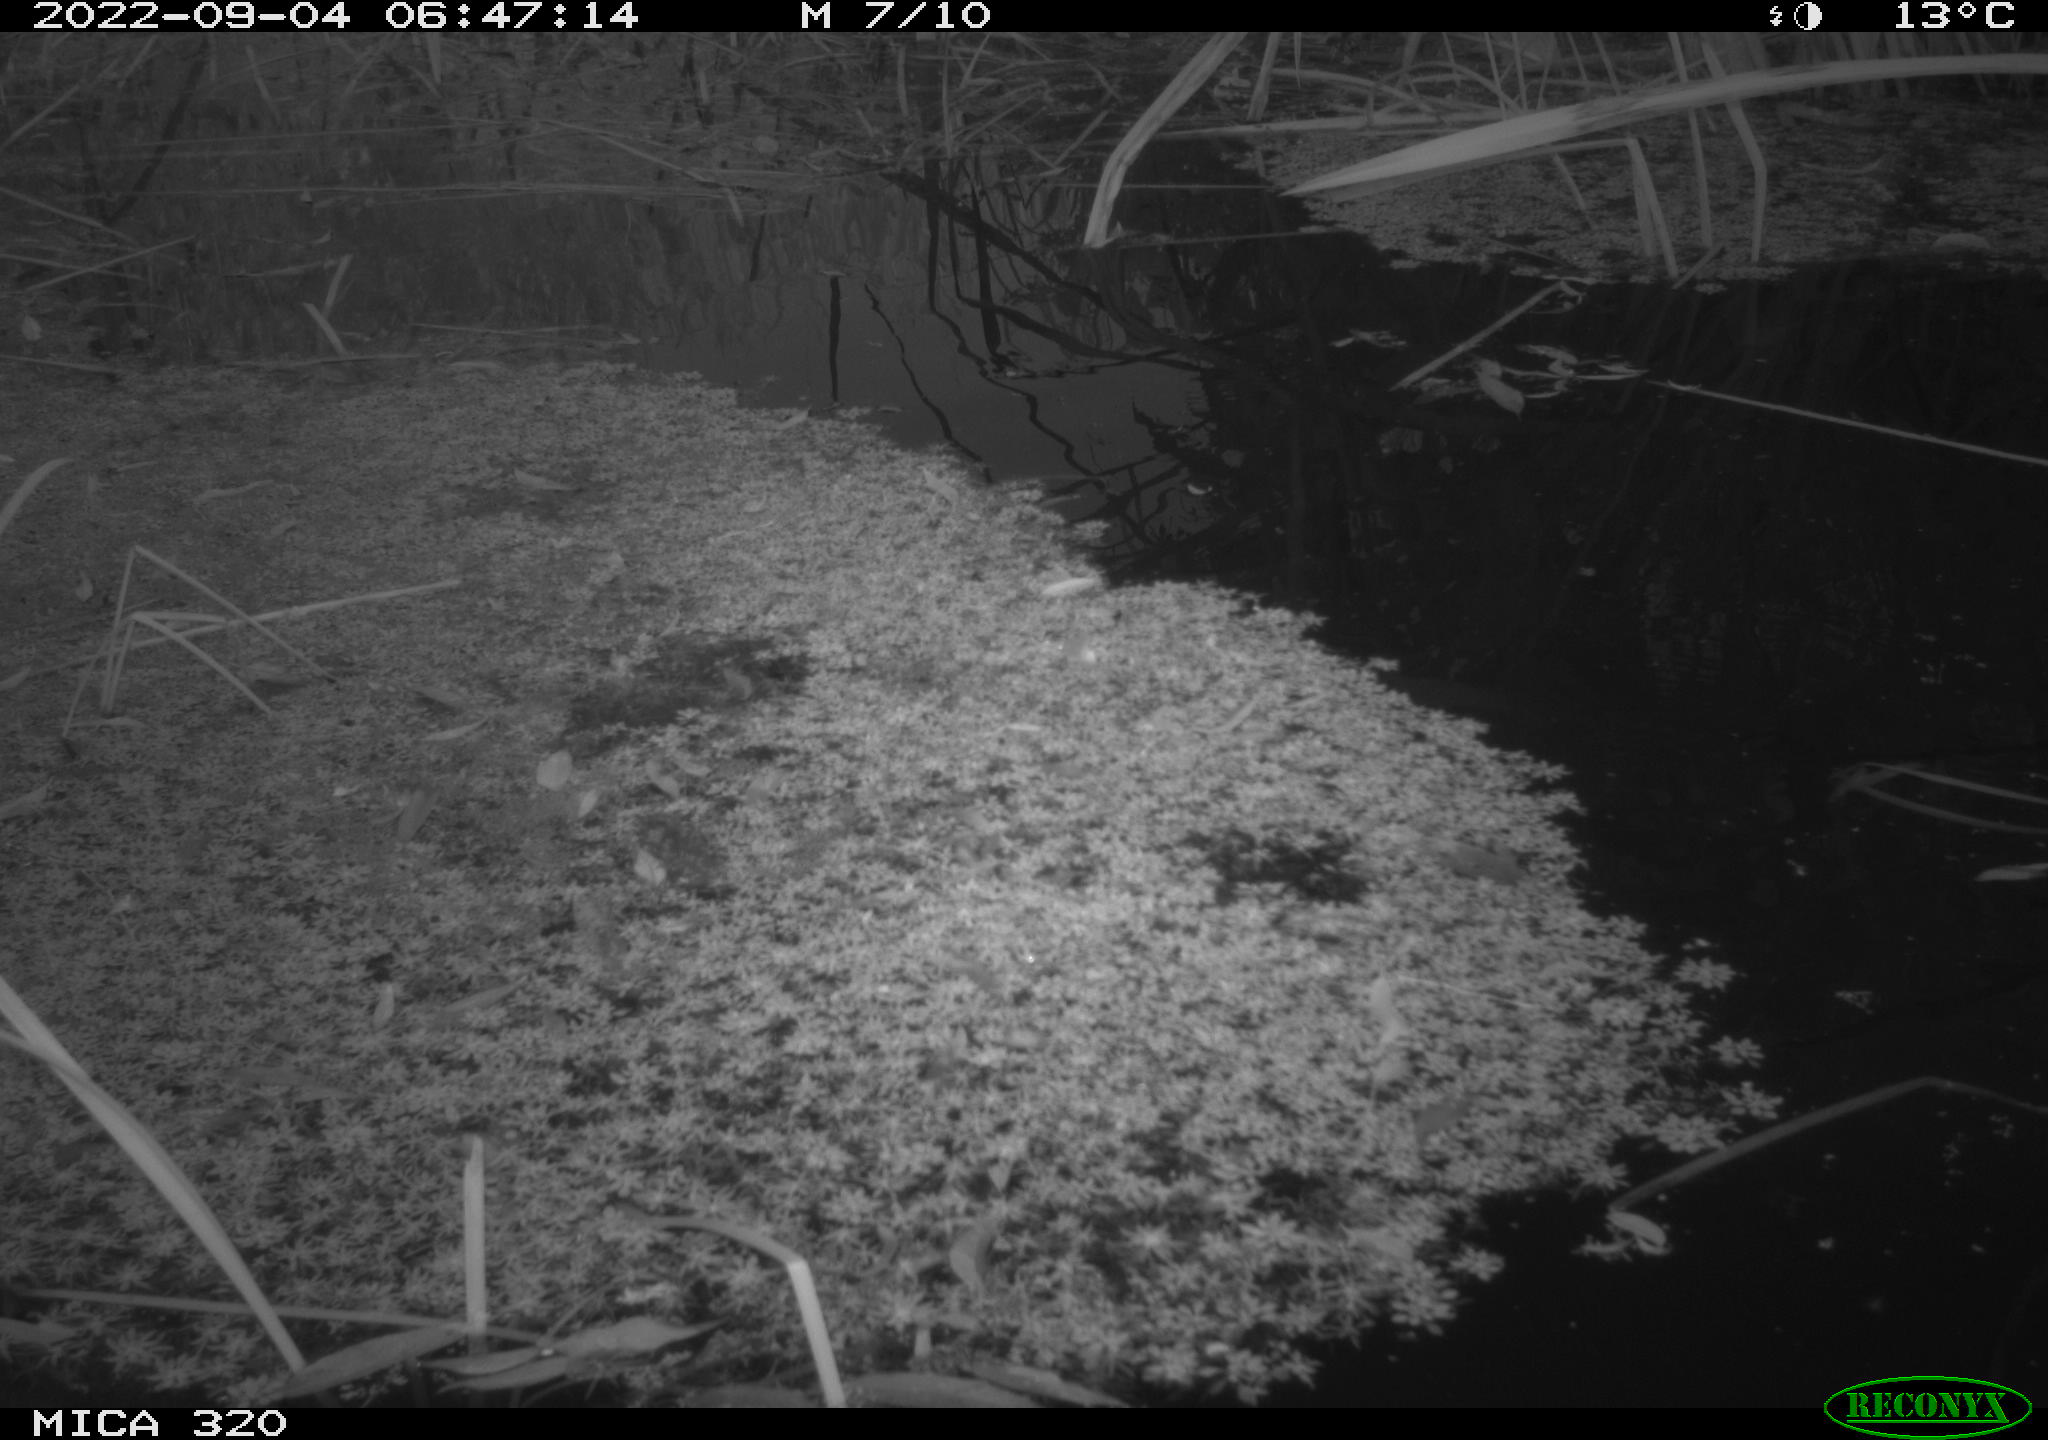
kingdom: Animalia
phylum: Chordata
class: Aves
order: Gruiformes
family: Rallidae
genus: Gallinula
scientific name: Gallinula chloropus
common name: Common moorhen
